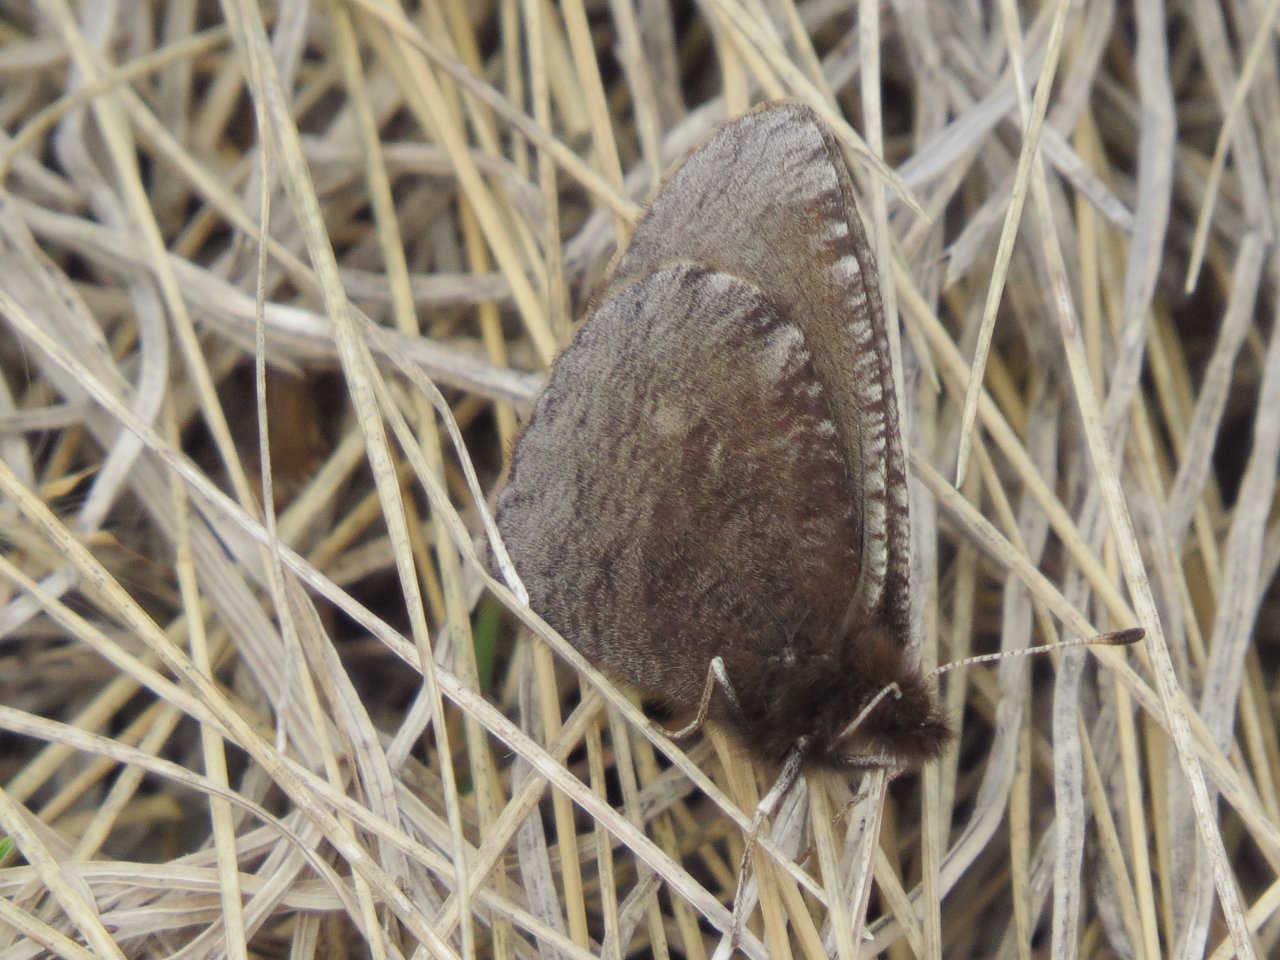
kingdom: Animalia
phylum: Arthropoda
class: Insecta
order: Lepidoptera
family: Nymphalidae
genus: Erebia
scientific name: Erebia discoidalis
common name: Red-disked Alpine
